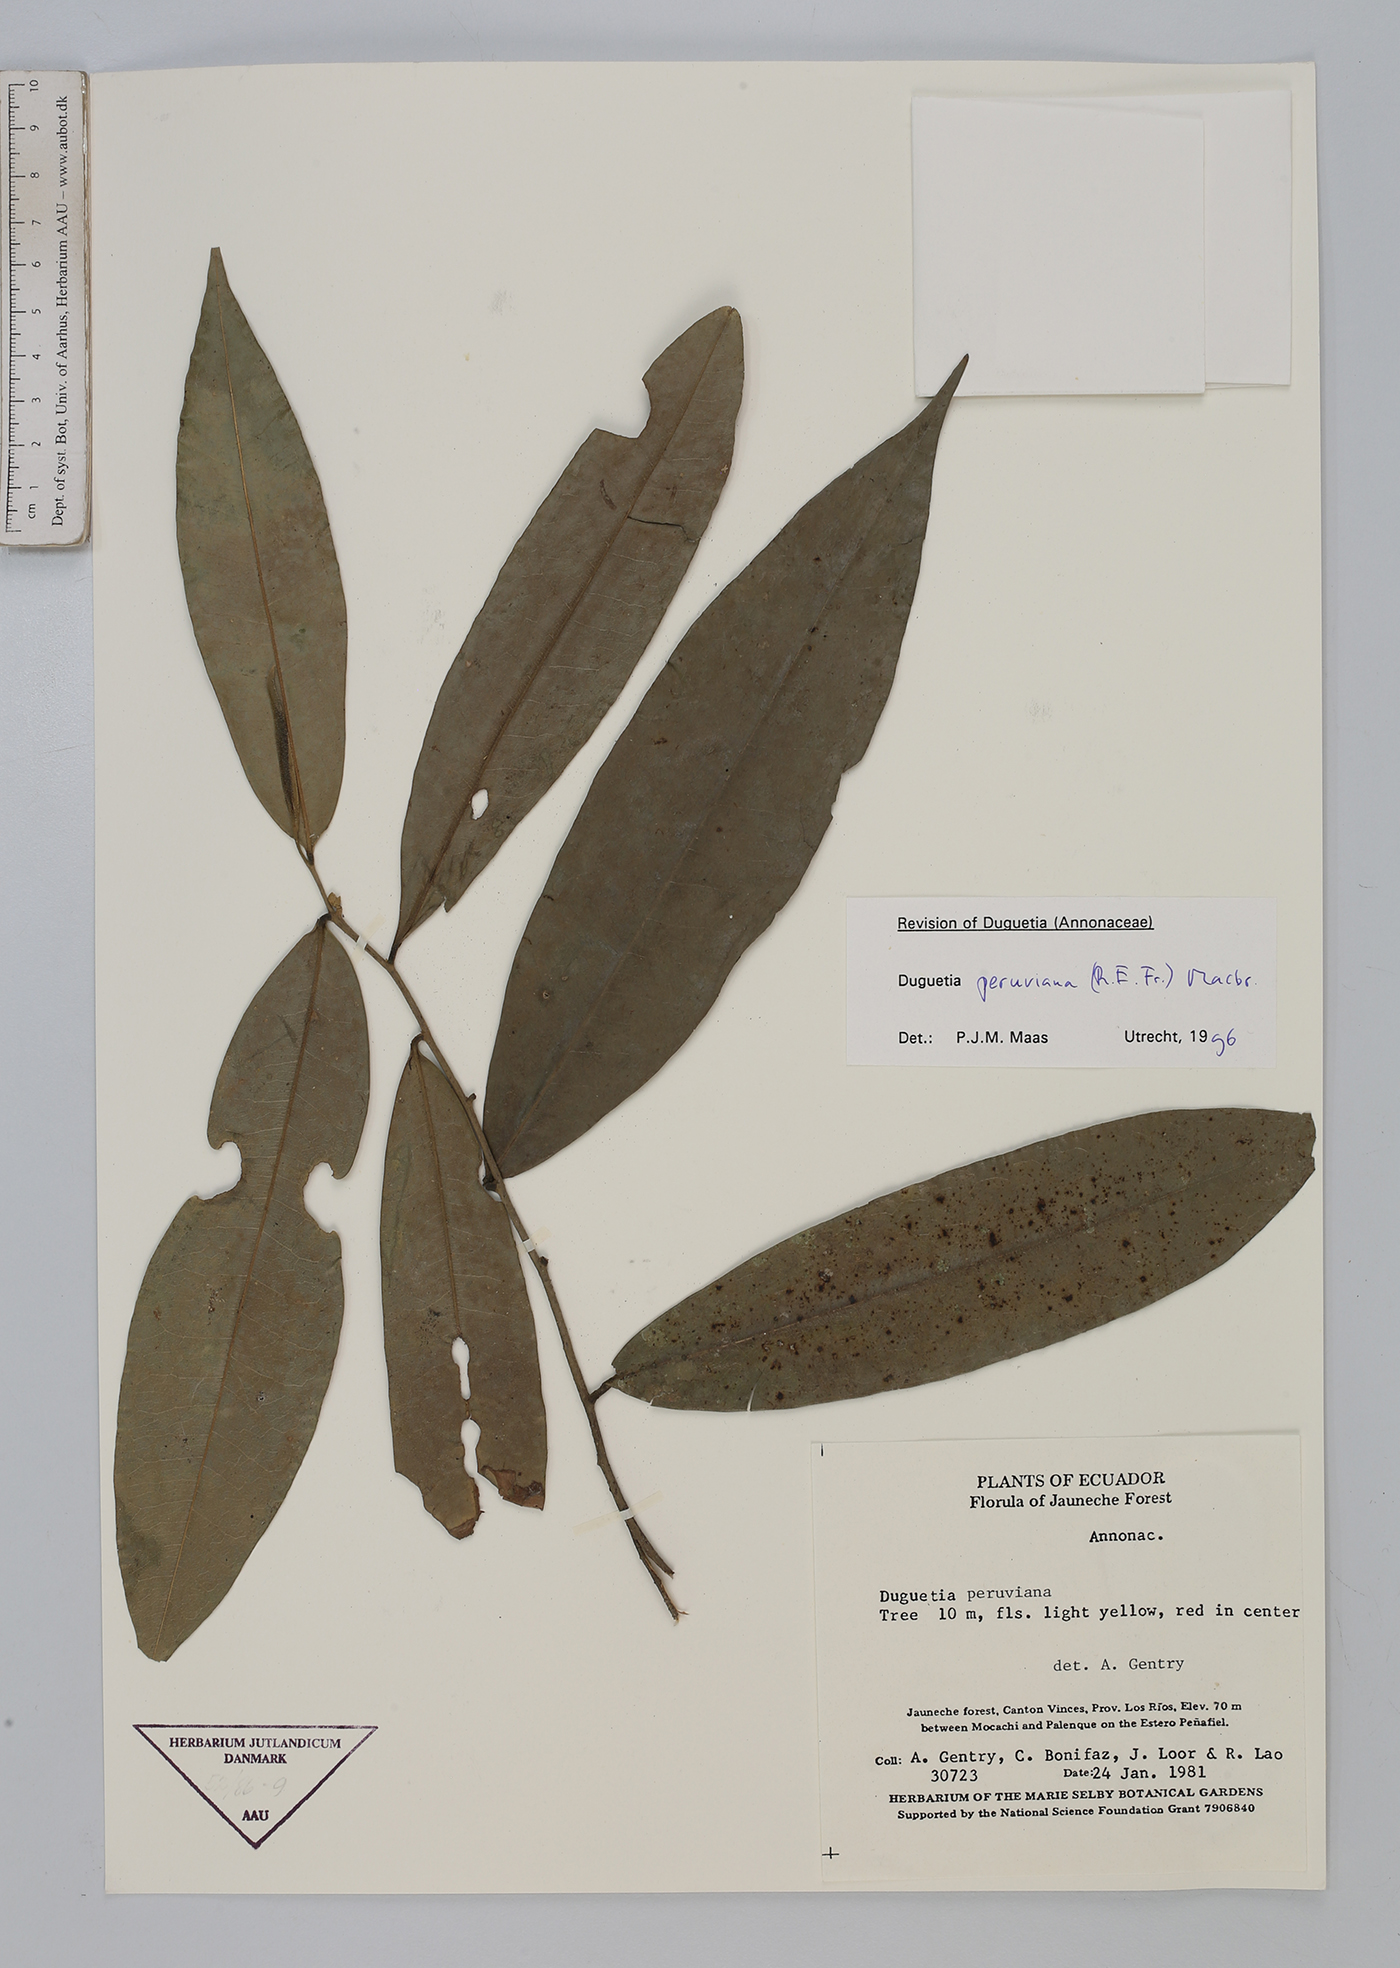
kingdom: Plantae
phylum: Tracheophyta
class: Magnoliopsida
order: Magnoliales
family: Annonaceae
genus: Duguetia
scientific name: Duguetia peruviana
